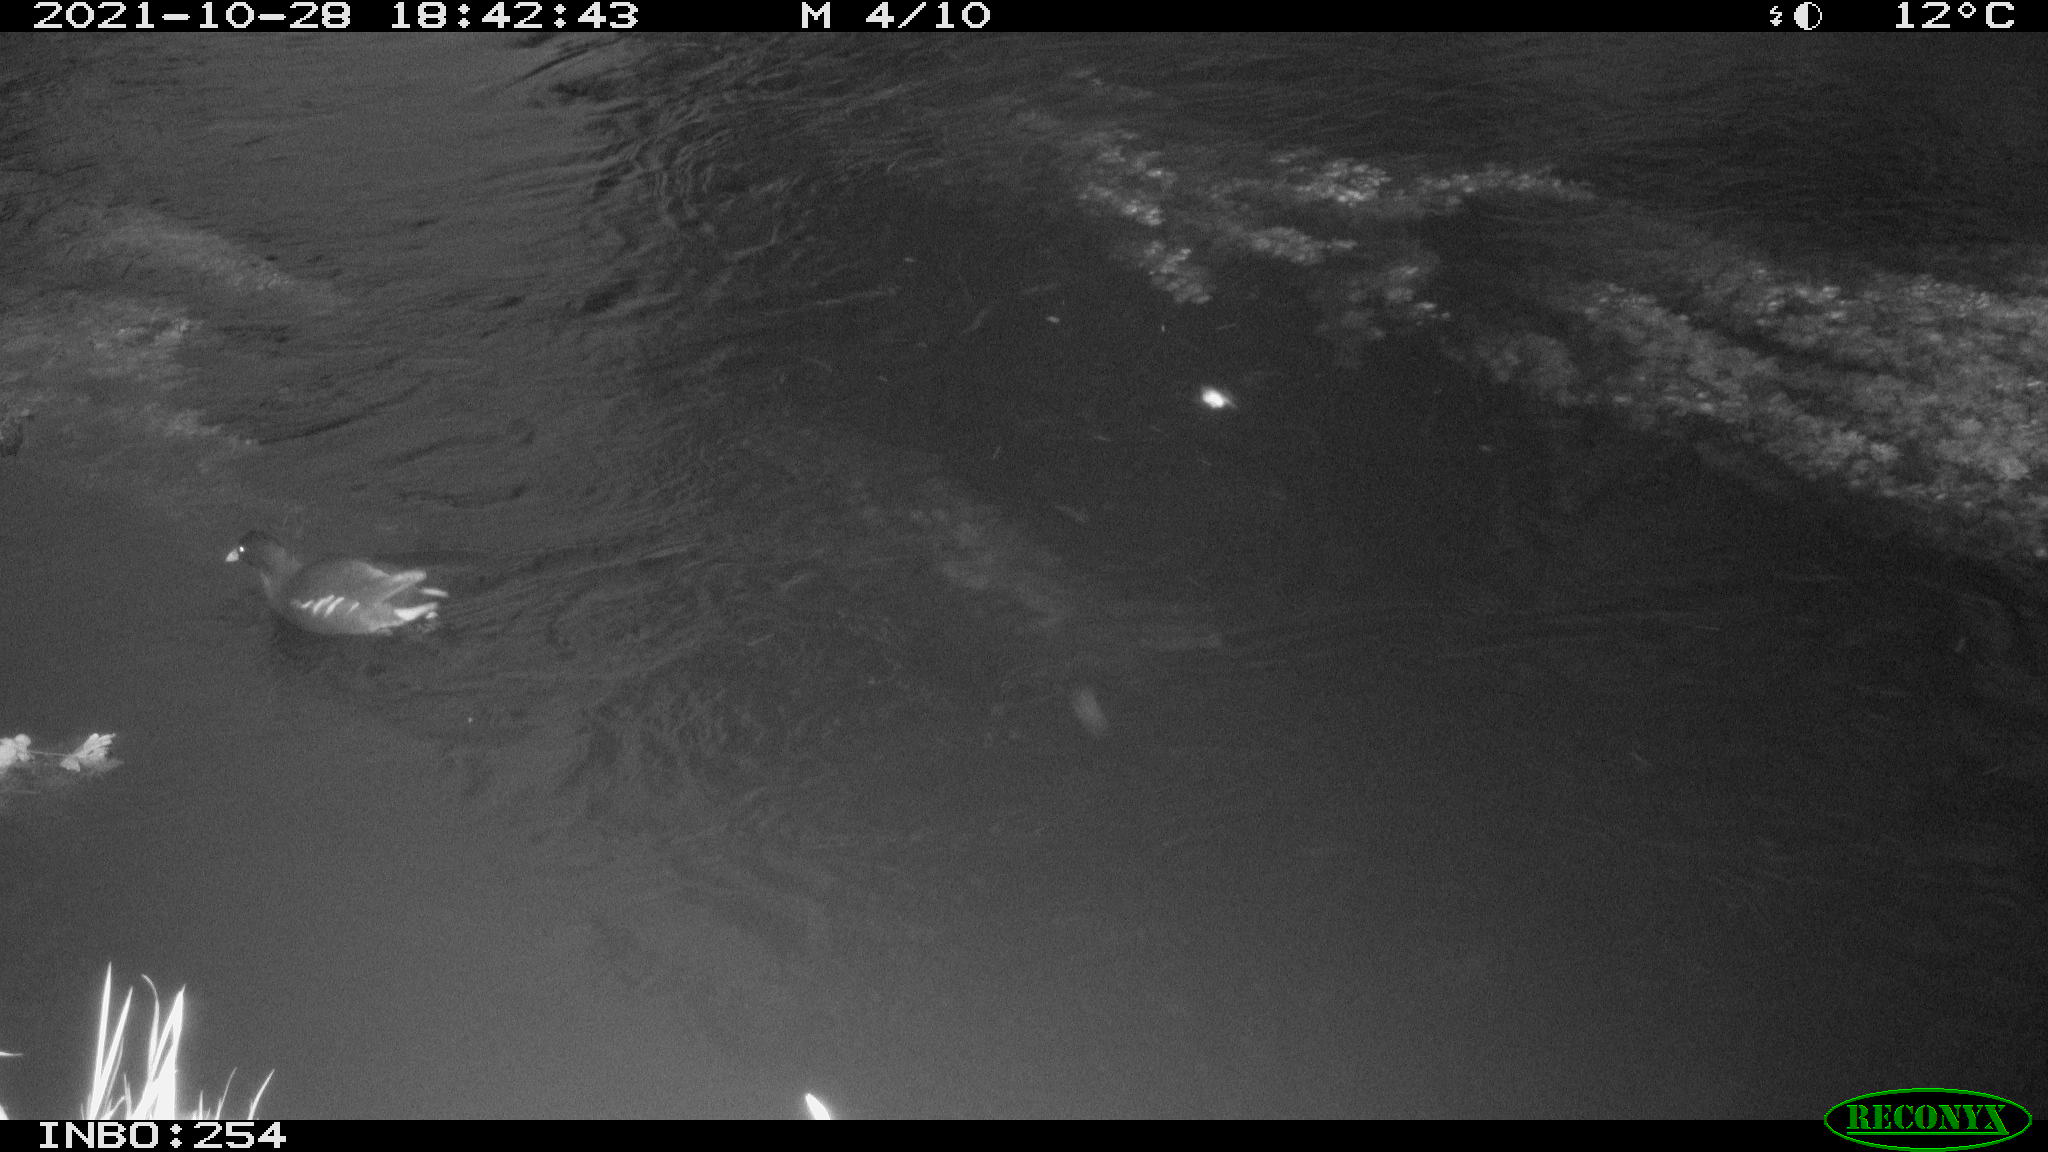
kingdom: Animalia
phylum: Chordata
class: Aves
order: Gruiformes
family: Rallidae
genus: Gallinula
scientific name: Gallinula chloropus
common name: Common moorhen
